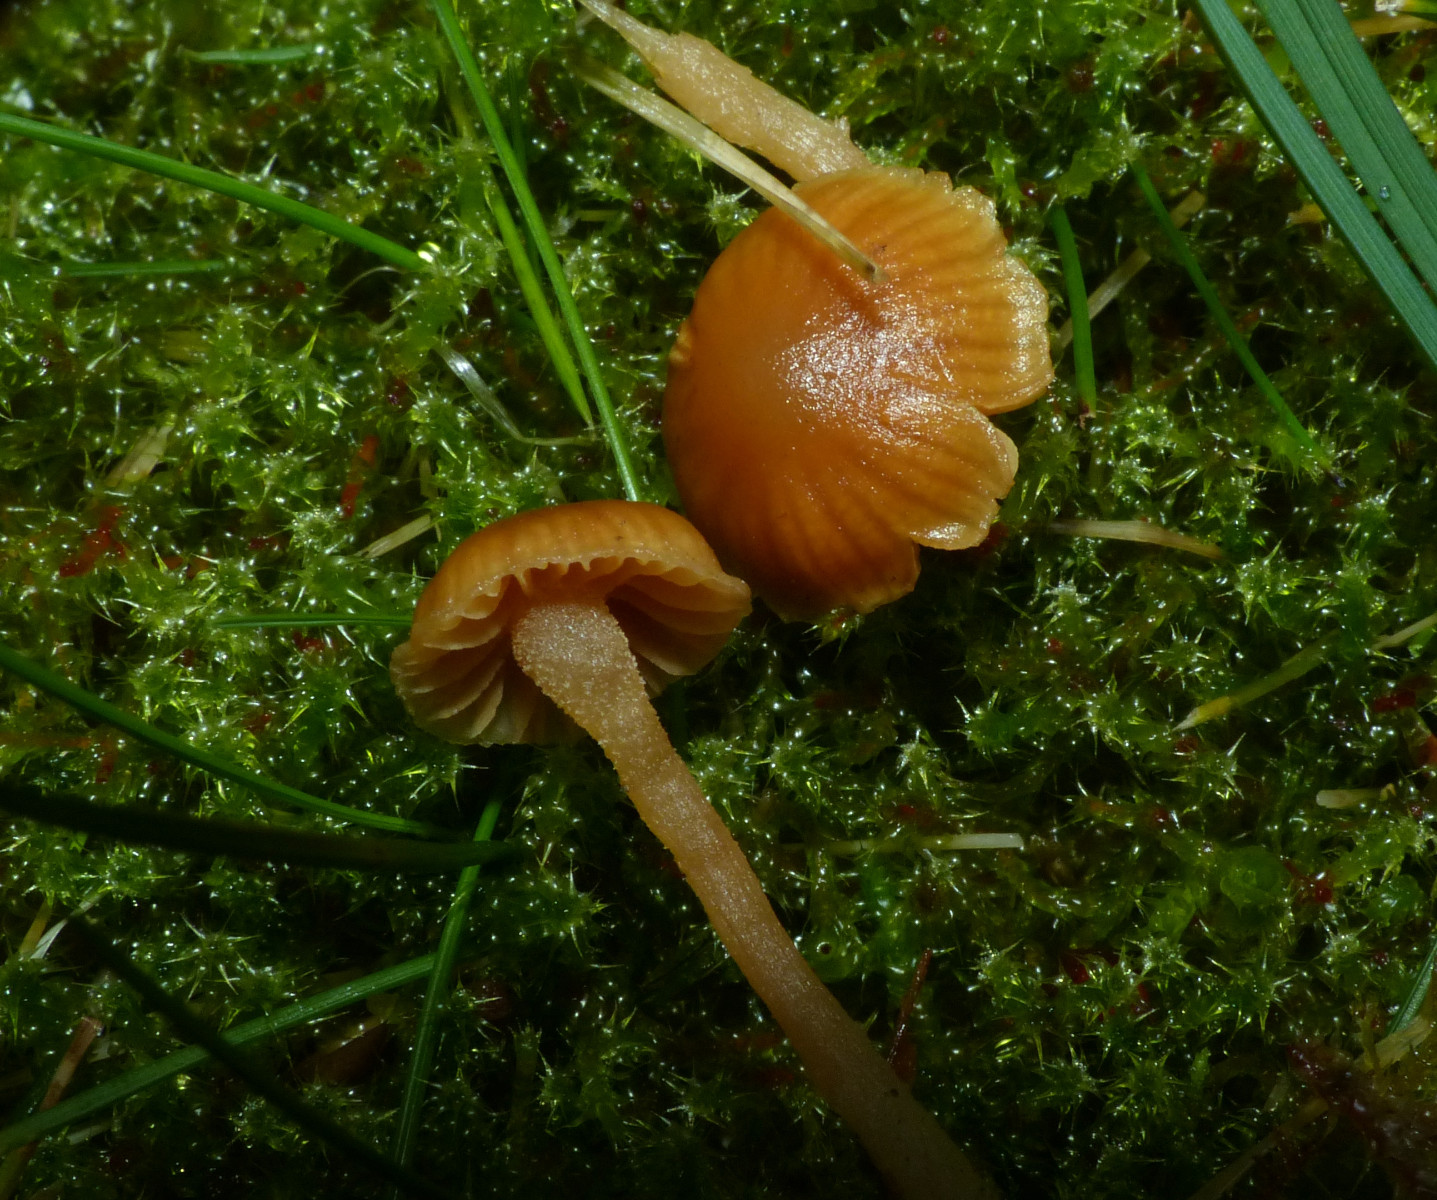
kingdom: Fungi
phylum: Basidiomycota
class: Agaricomycetes
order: Agaricales
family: Hymenogastraceae
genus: Galerina
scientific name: Galerina
